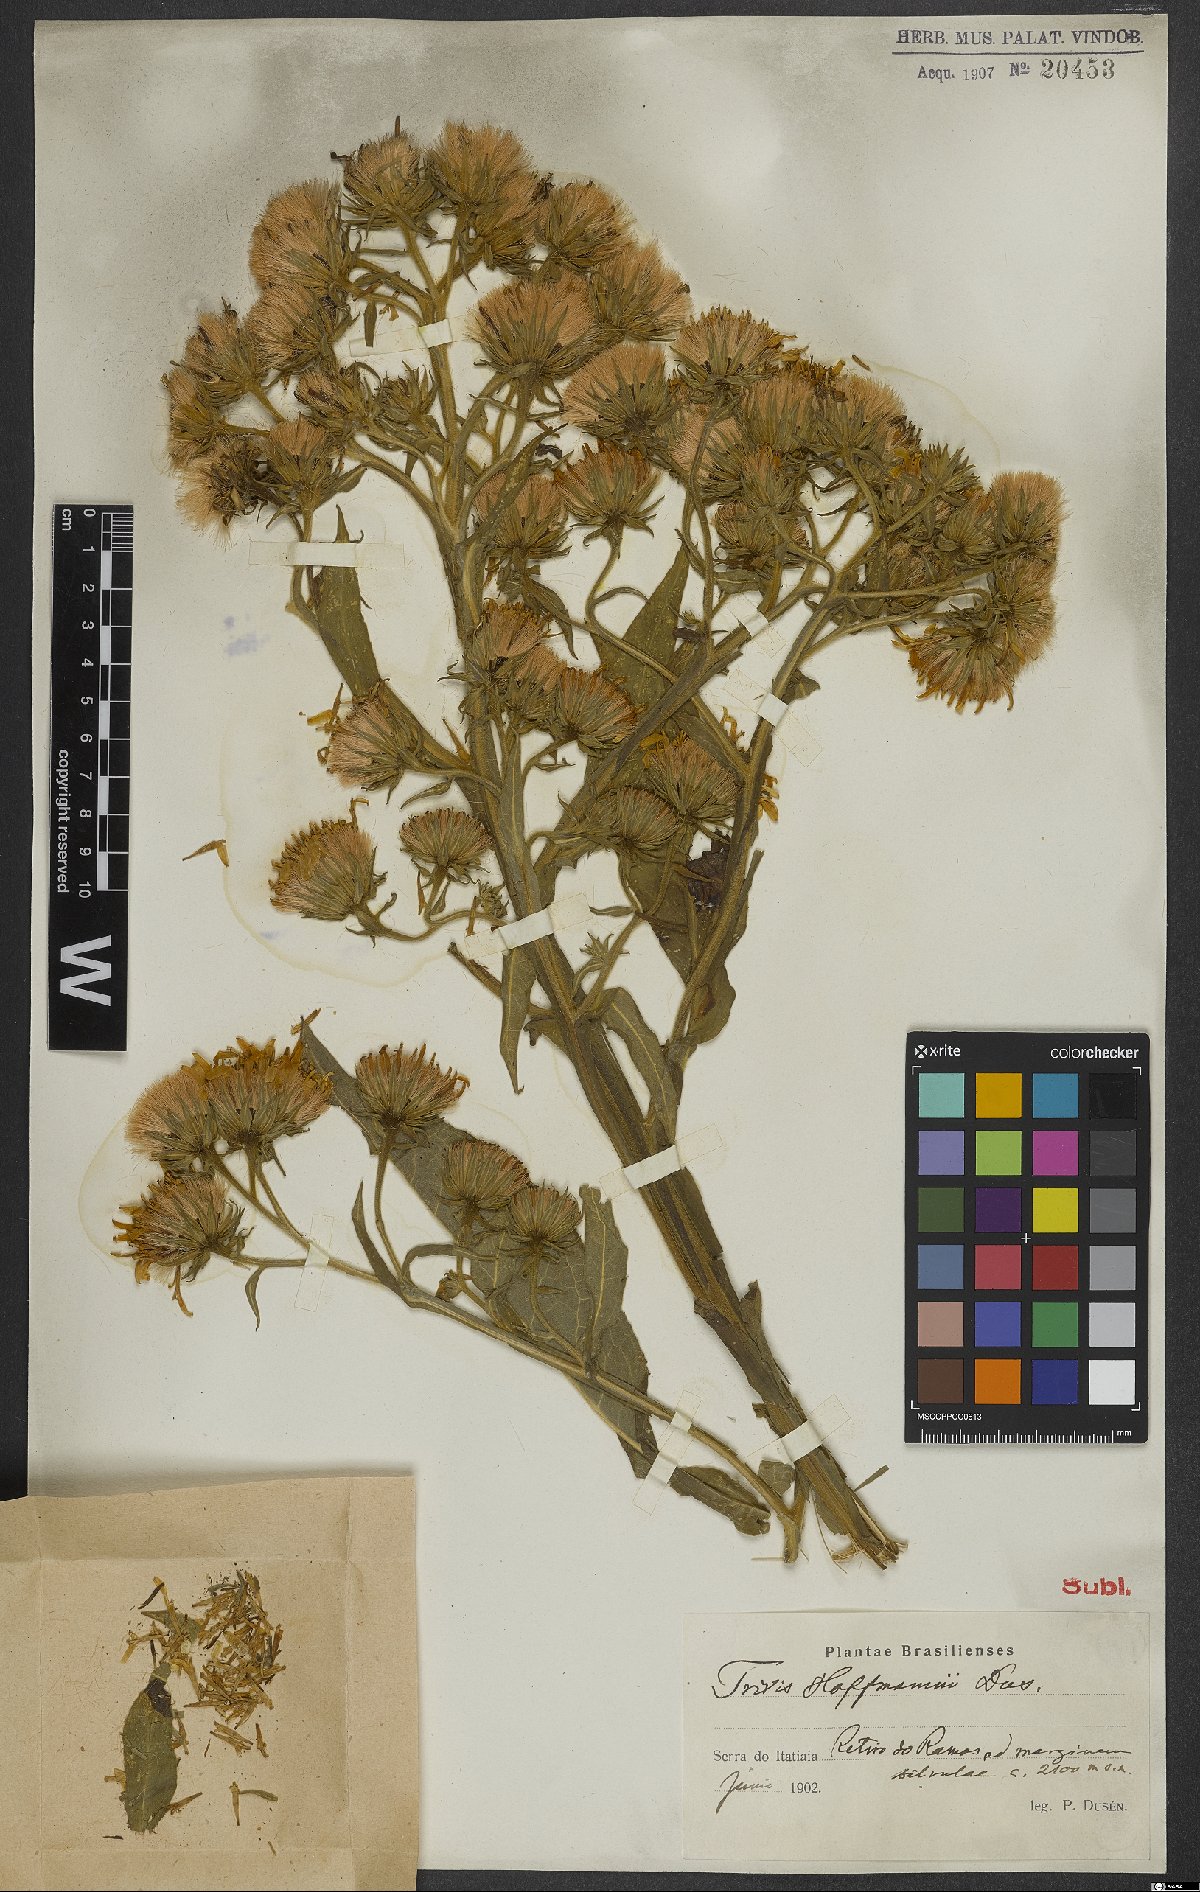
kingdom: Plantae
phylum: Tracheophyta
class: Magnoliopsida
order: Asterales
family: Asteraceae
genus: Trixis
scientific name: Trixis ophiorhiza
